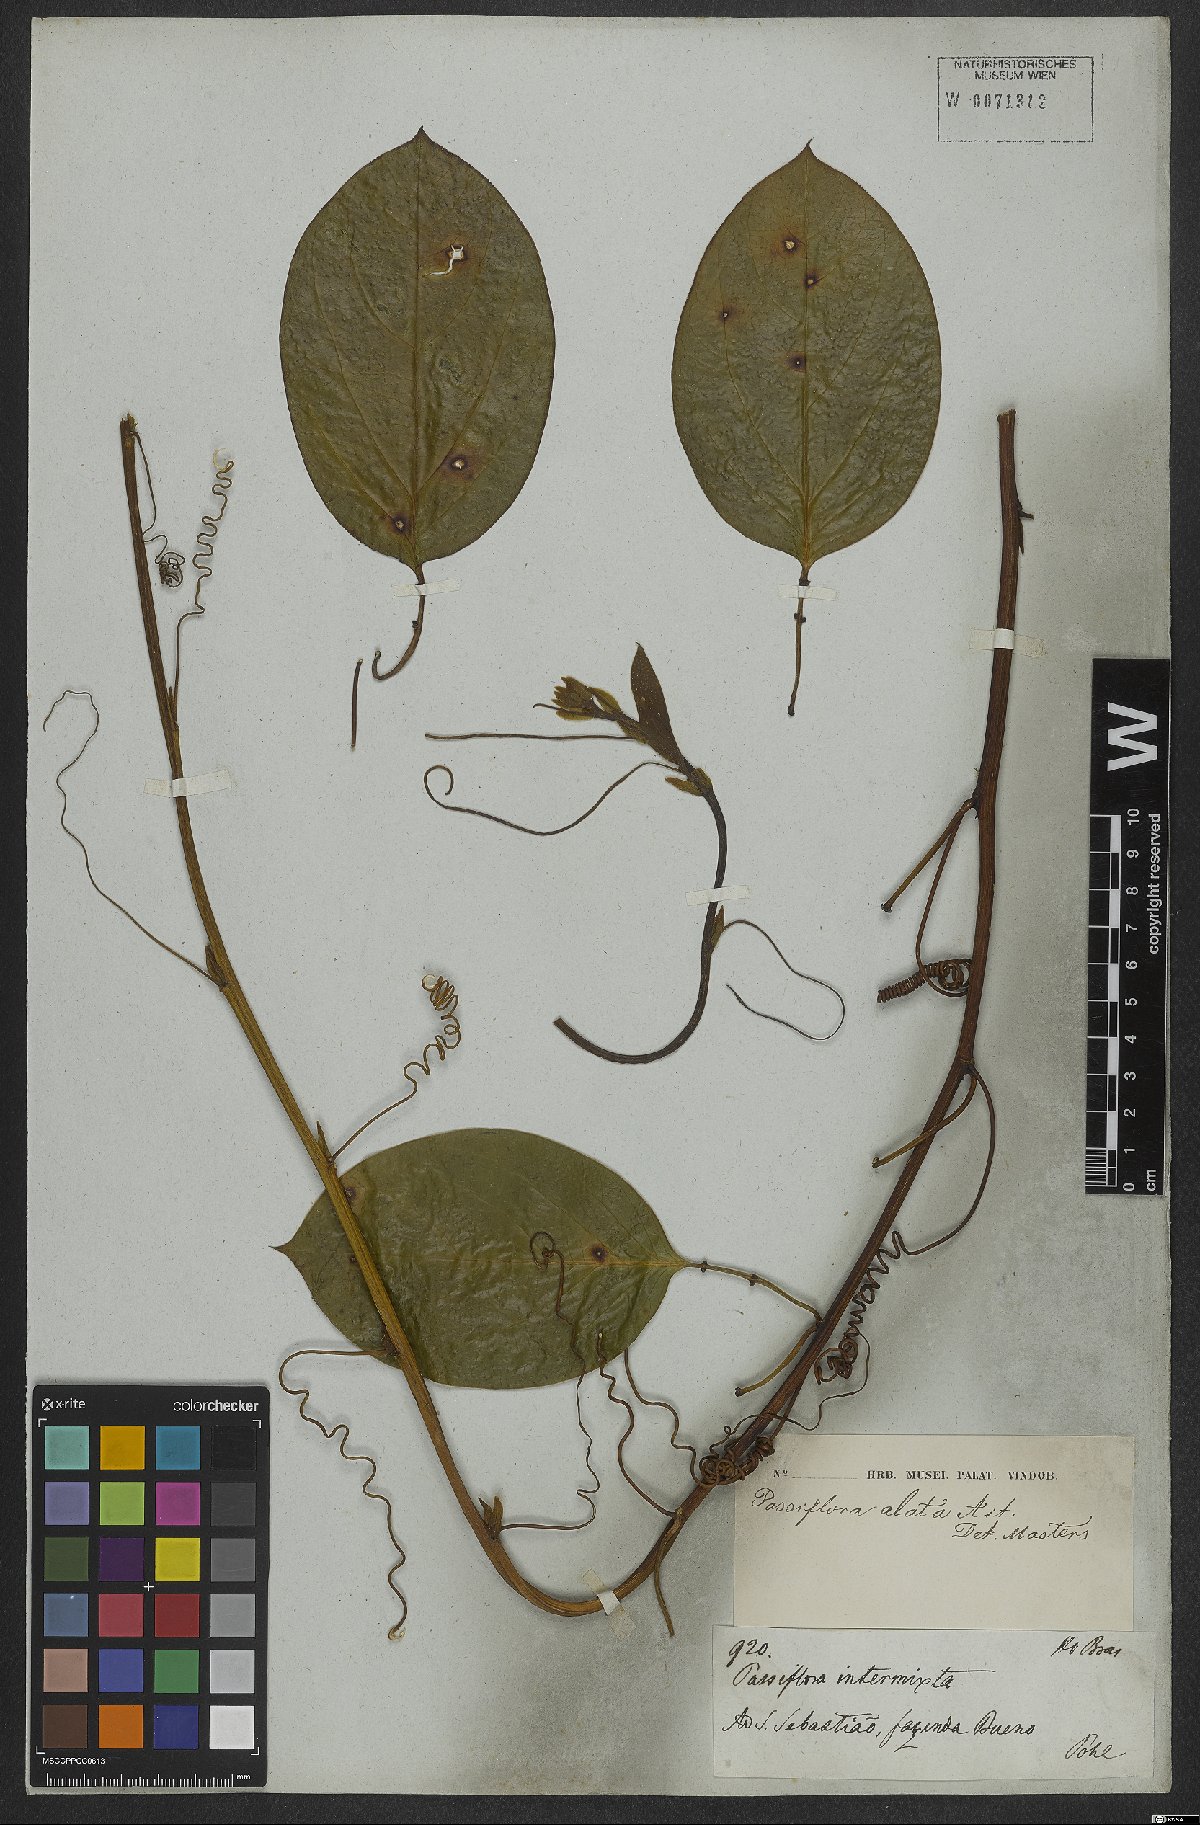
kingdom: Plantae
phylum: Tracheophyta
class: Magnoliopsida
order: Malpighiales
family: Passifloraceae
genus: Passiflora
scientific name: Passiflora alata
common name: Wing-stemmed passion flower
